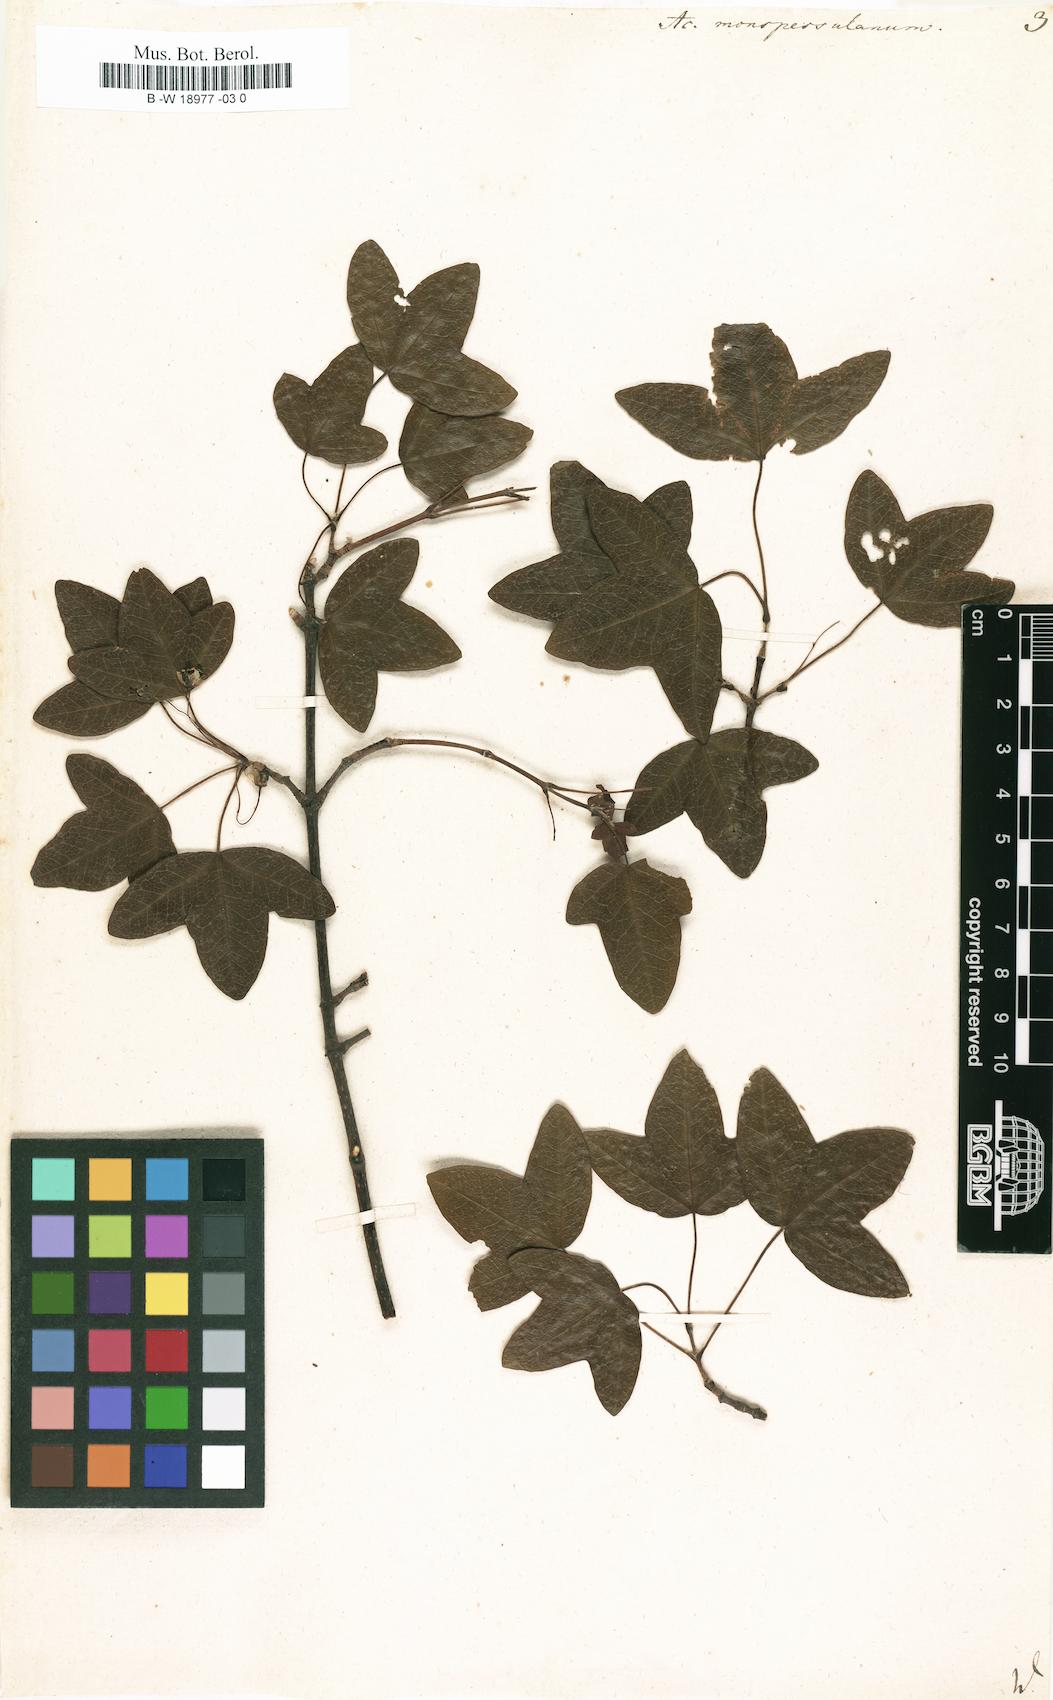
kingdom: Plantae
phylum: Tracheophyta
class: Magnoliopsida
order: Sapindales
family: Sapindaceae
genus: Acer
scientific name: Acer monspessulanum
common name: Montpellier maple
